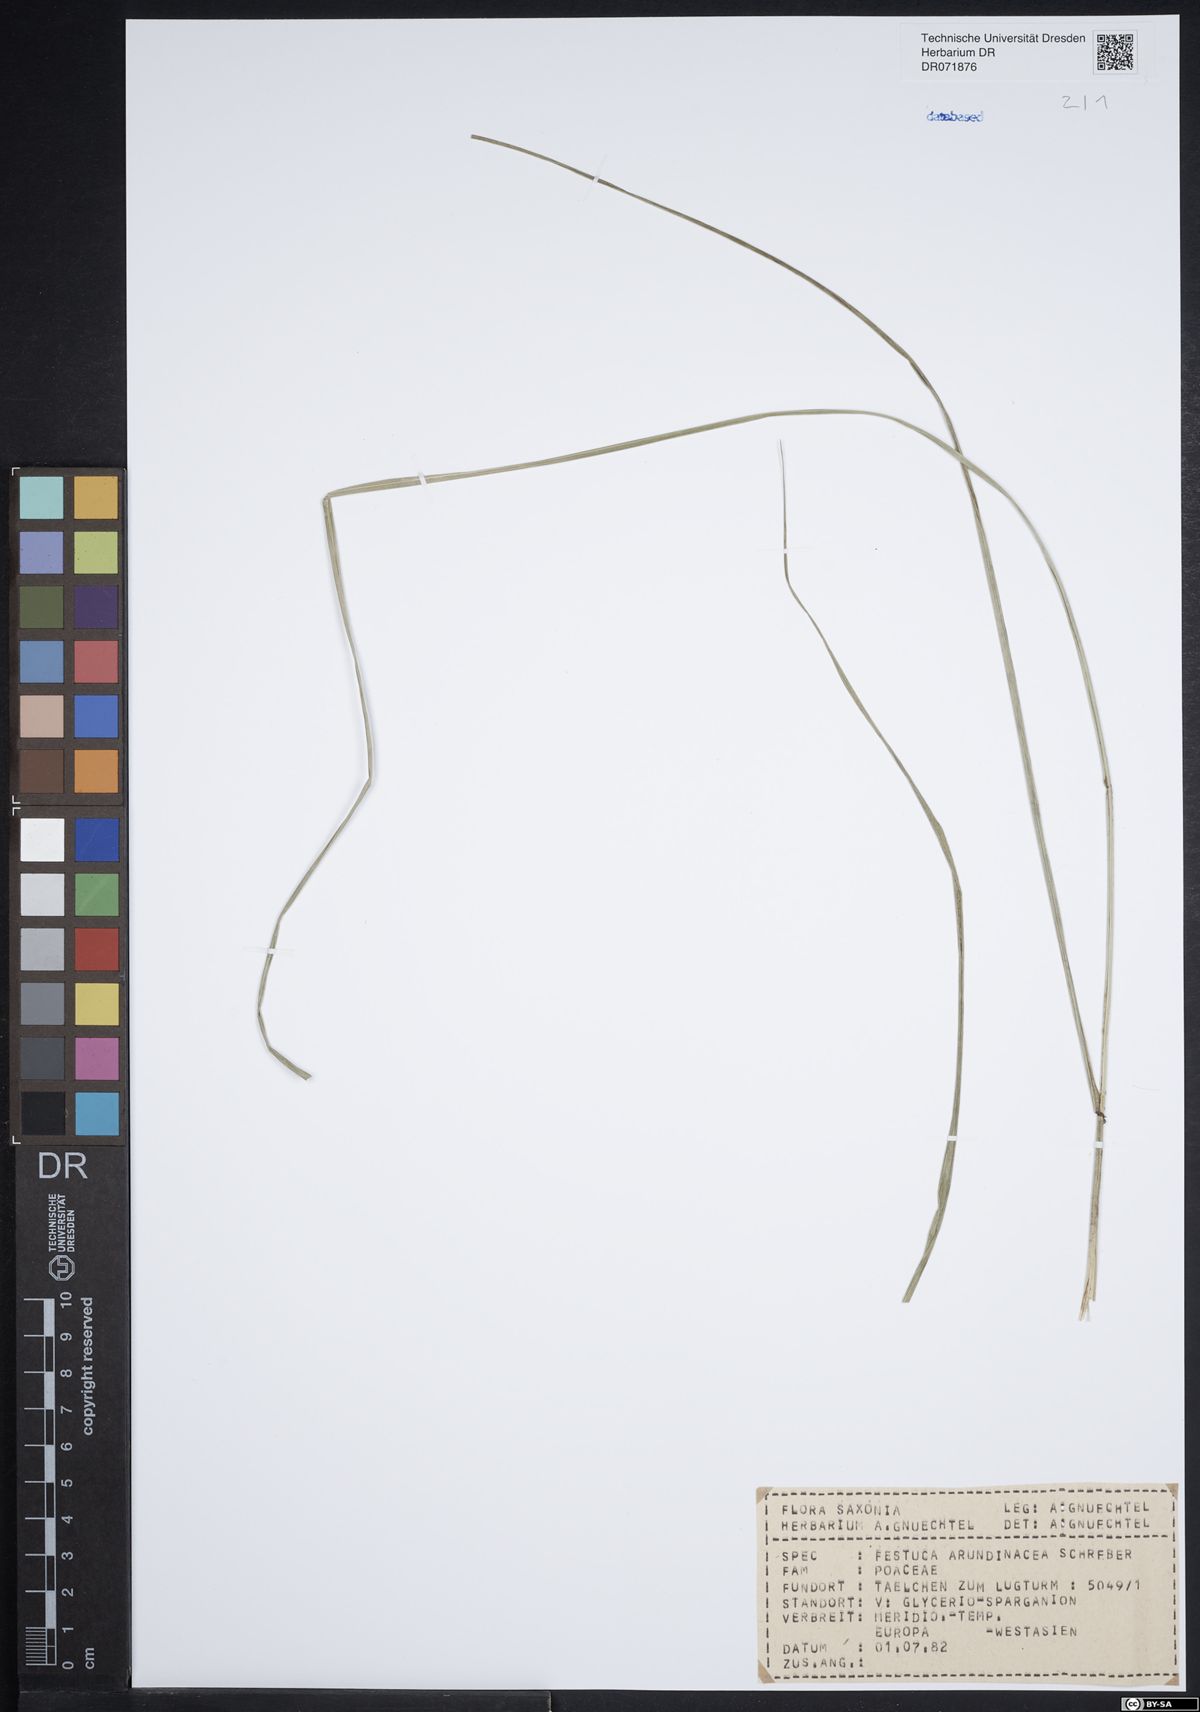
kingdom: Plantae
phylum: Tracheophyta
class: Liliopsida
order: Poales
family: Poaceae
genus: Lolium
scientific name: Lolium arundinaceum
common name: Reed fescue
